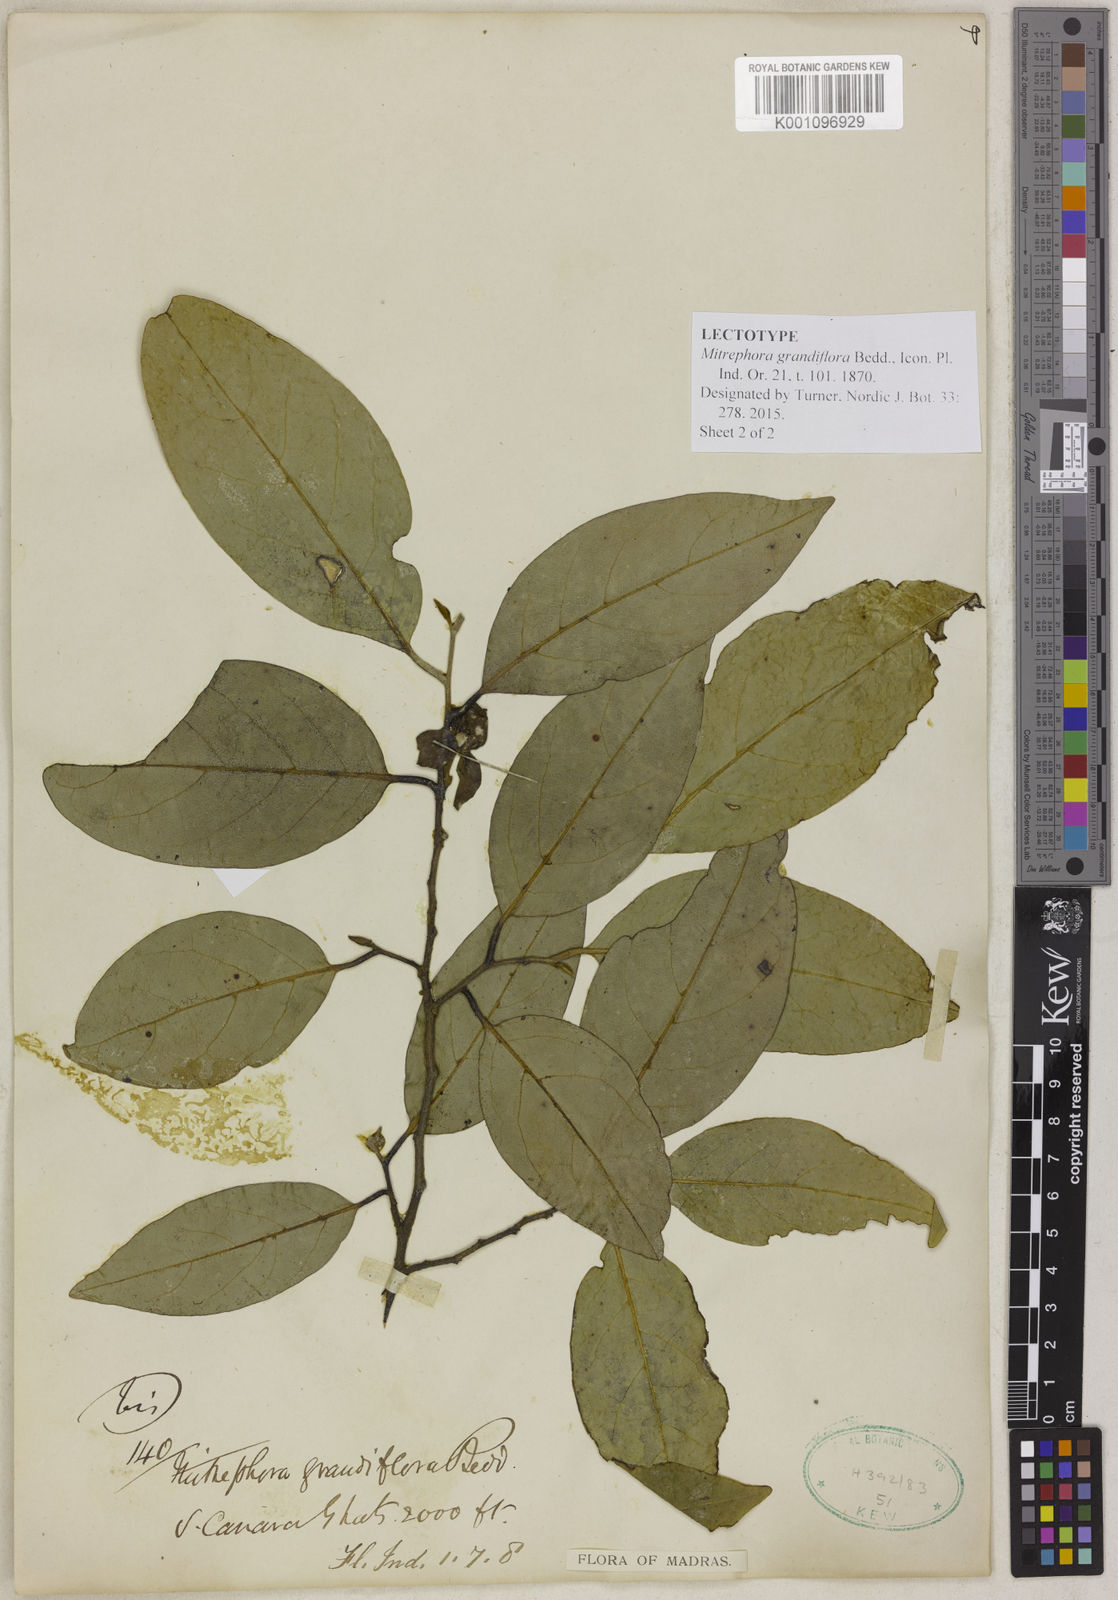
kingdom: Plantae
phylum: Tracheophyta
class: Magnoliopsida
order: Magnoliales
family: Annonaceae
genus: Mitrephora
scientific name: Mitrephora grandiflora
